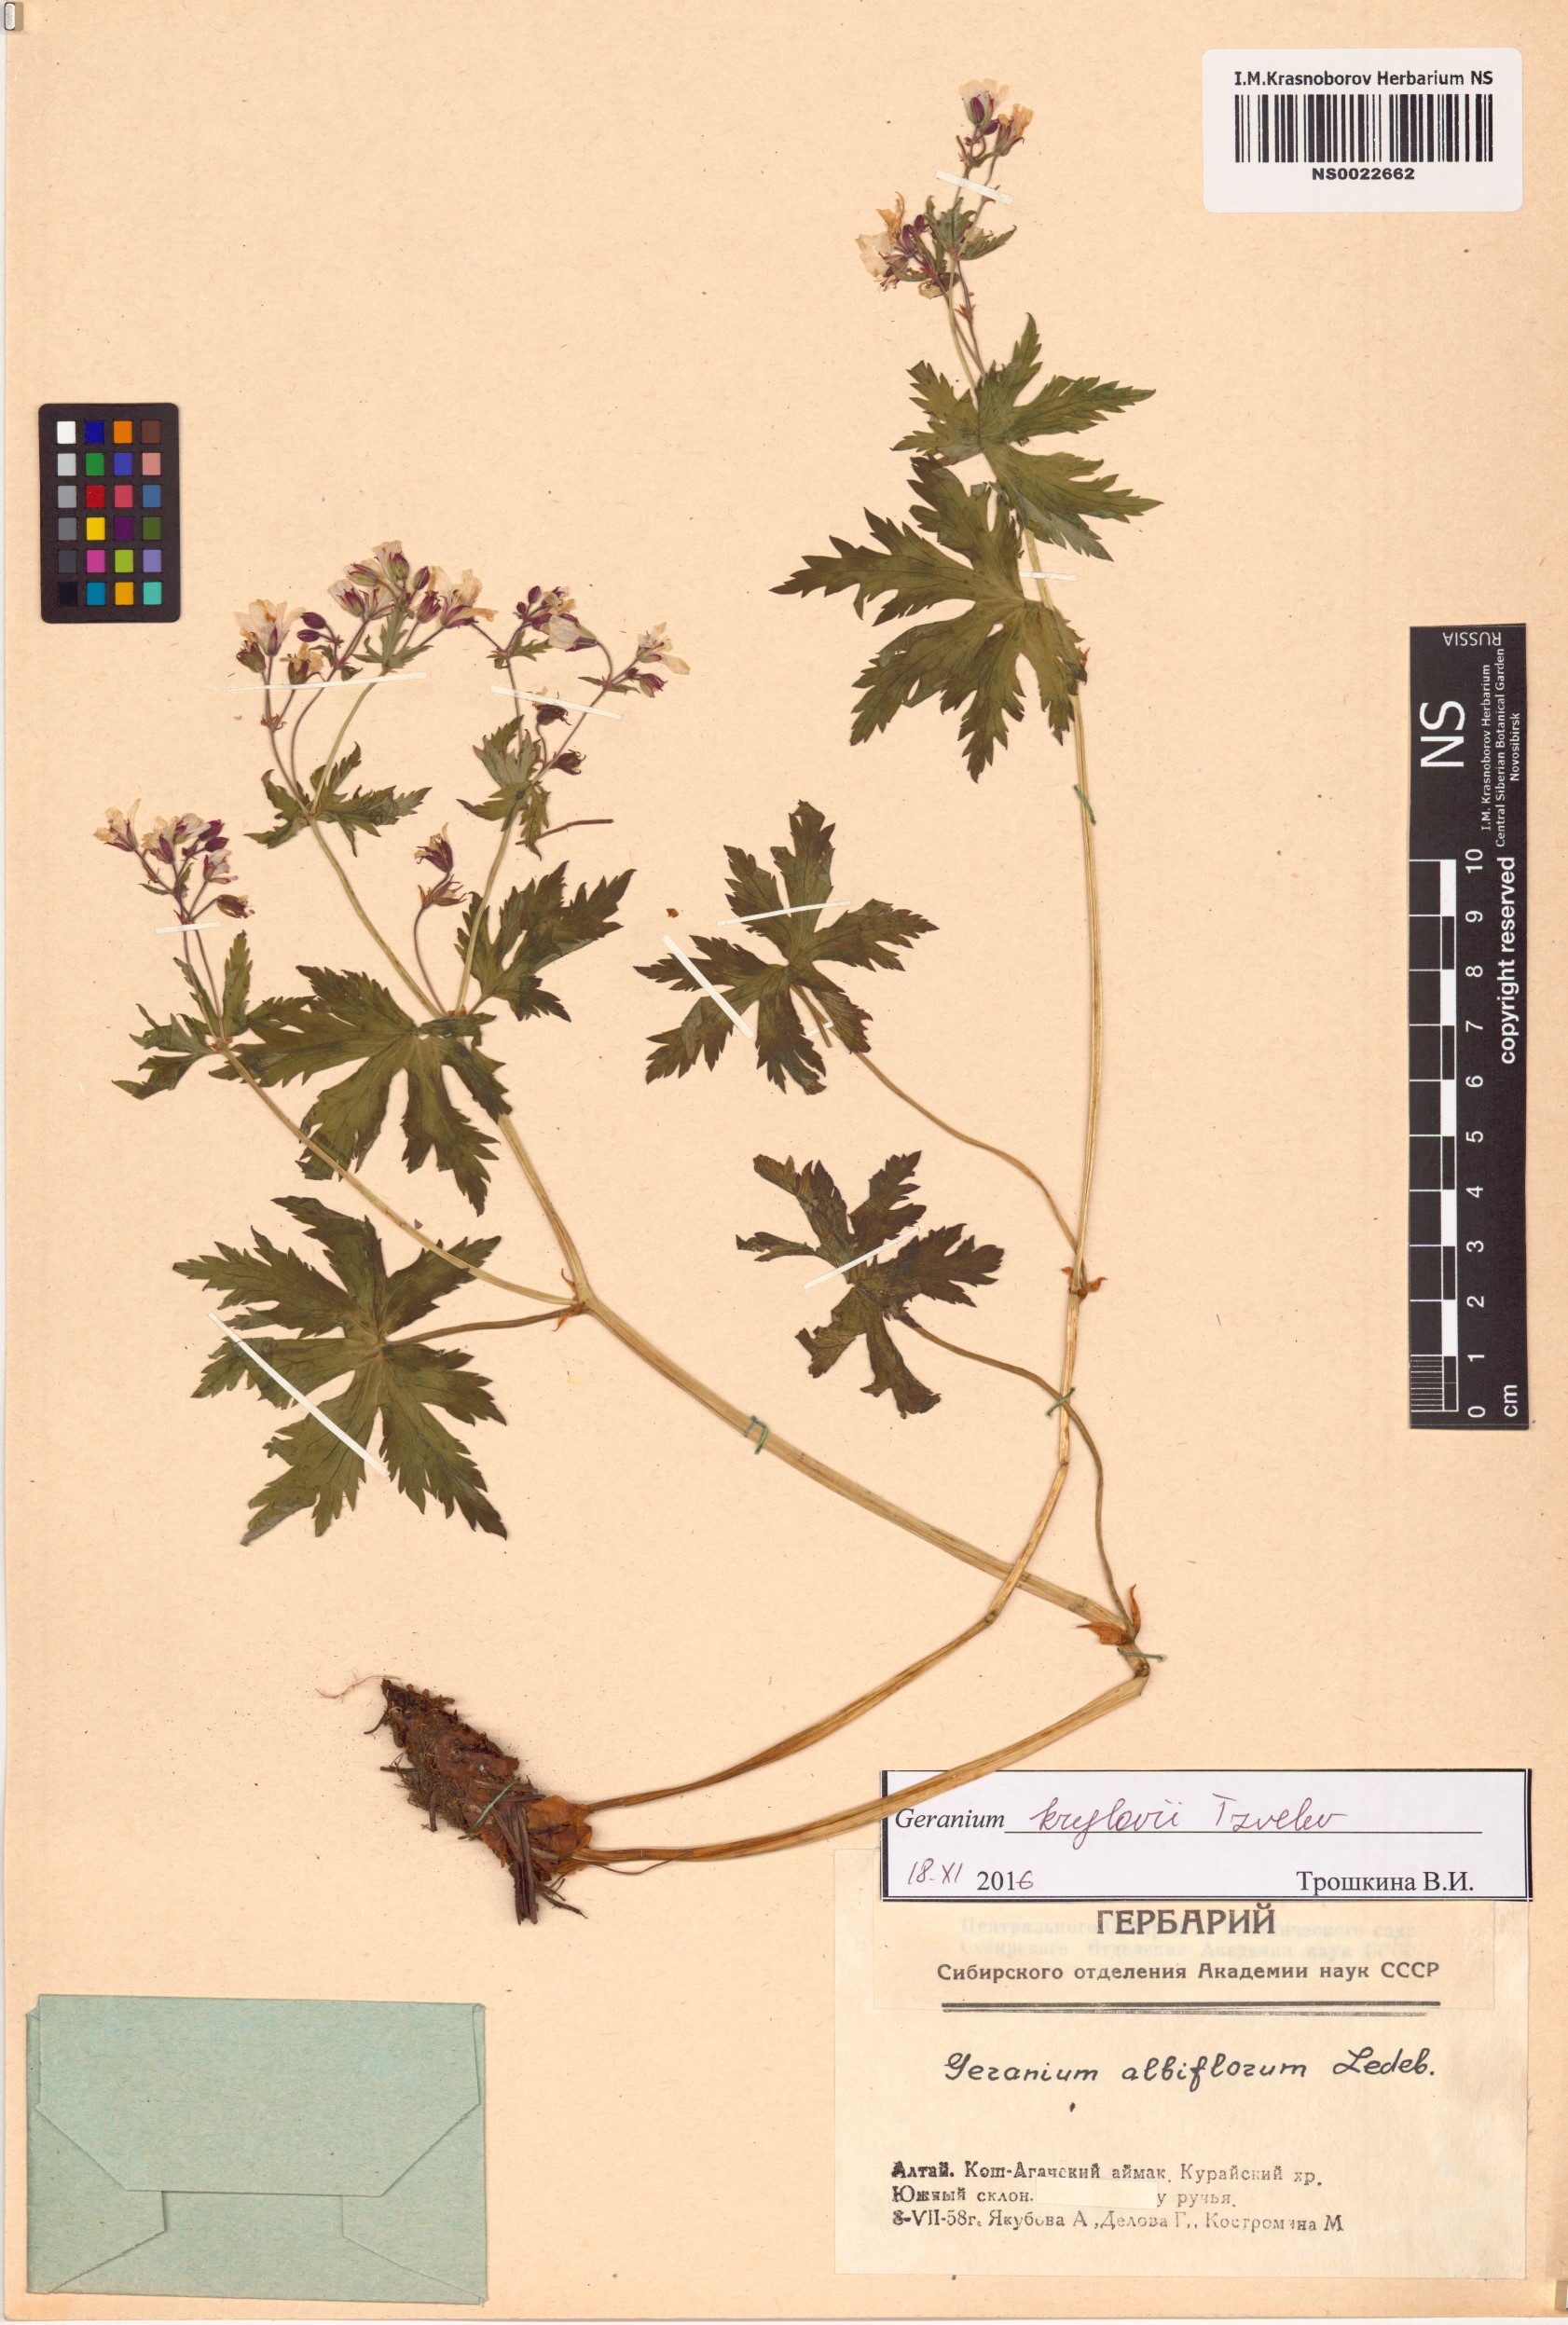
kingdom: Plantae
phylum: Tracheophyta
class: Magnoliopsida
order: Geraniales
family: Geraniaceae
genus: Geranium
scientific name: Geranium sylvaticum
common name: Wood crane's-bill
